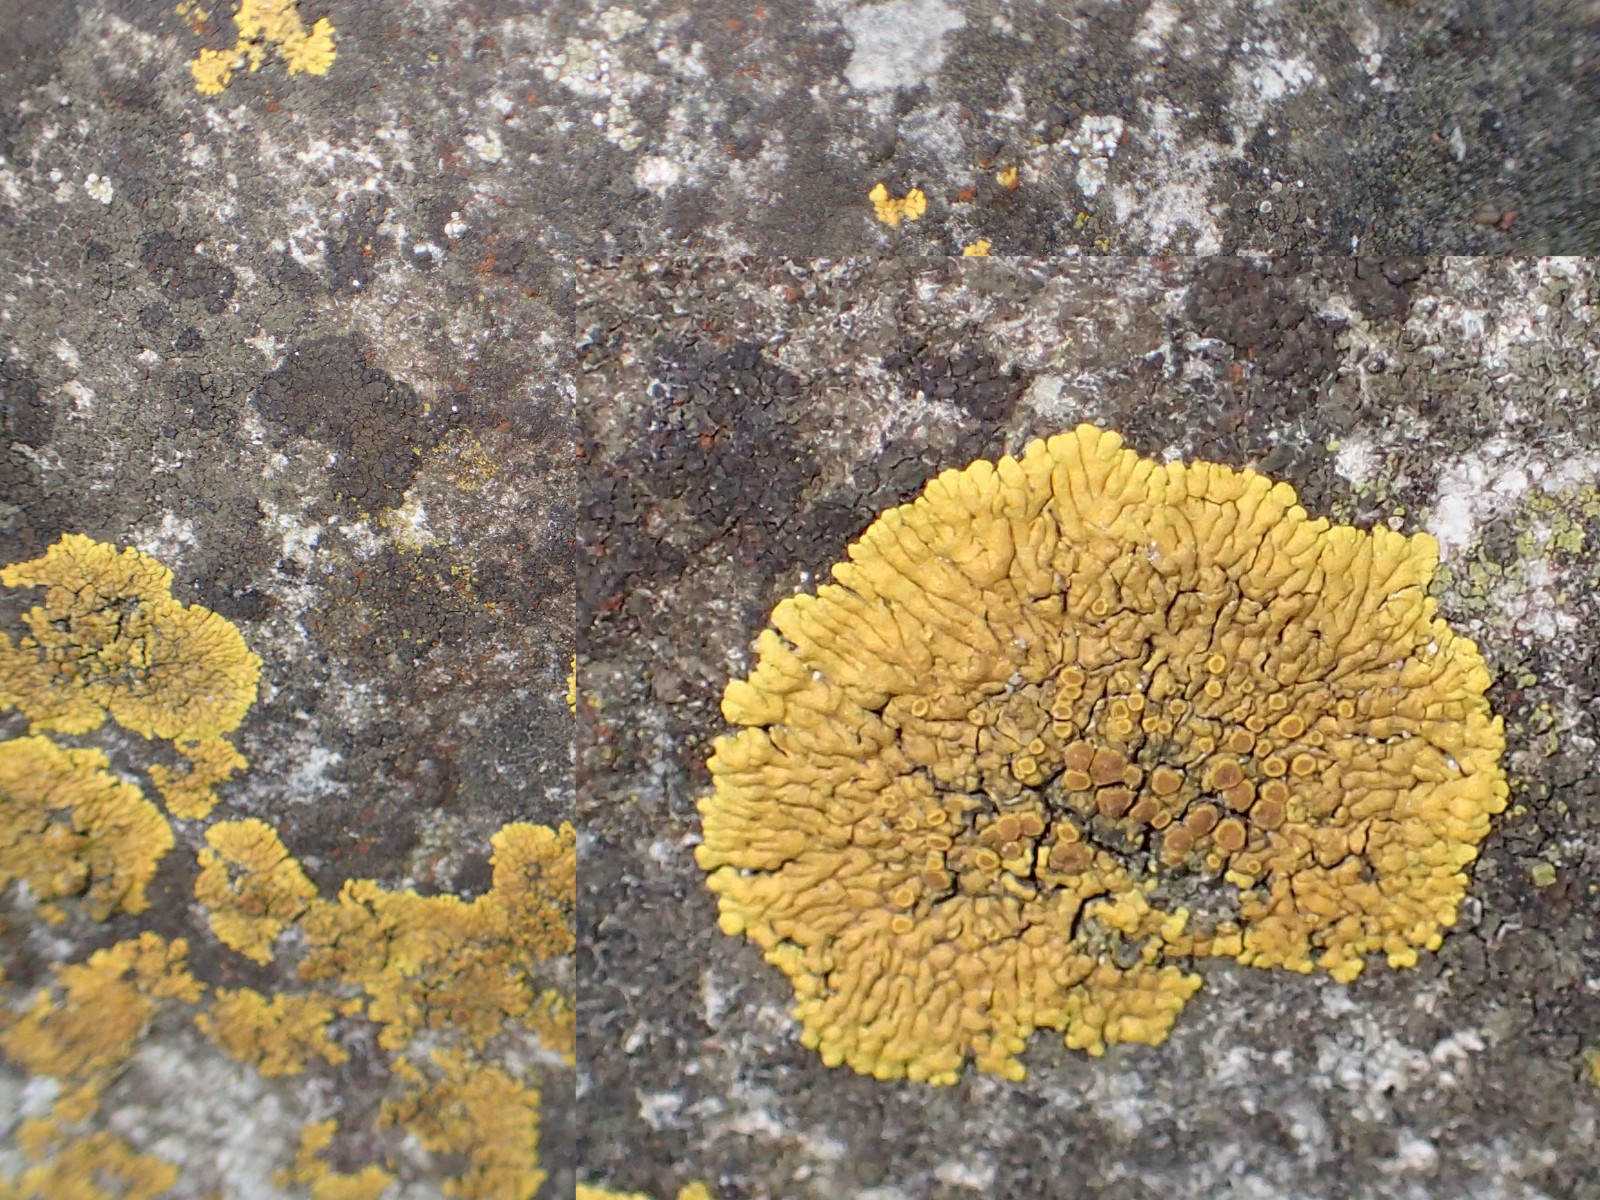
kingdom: Fungi
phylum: Ascomycota
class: Lecanoromycetes
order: Teloschistales
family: Teloschistaceae
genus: Variospora
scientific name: Variospora flavescens
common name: kalk-orangelav
